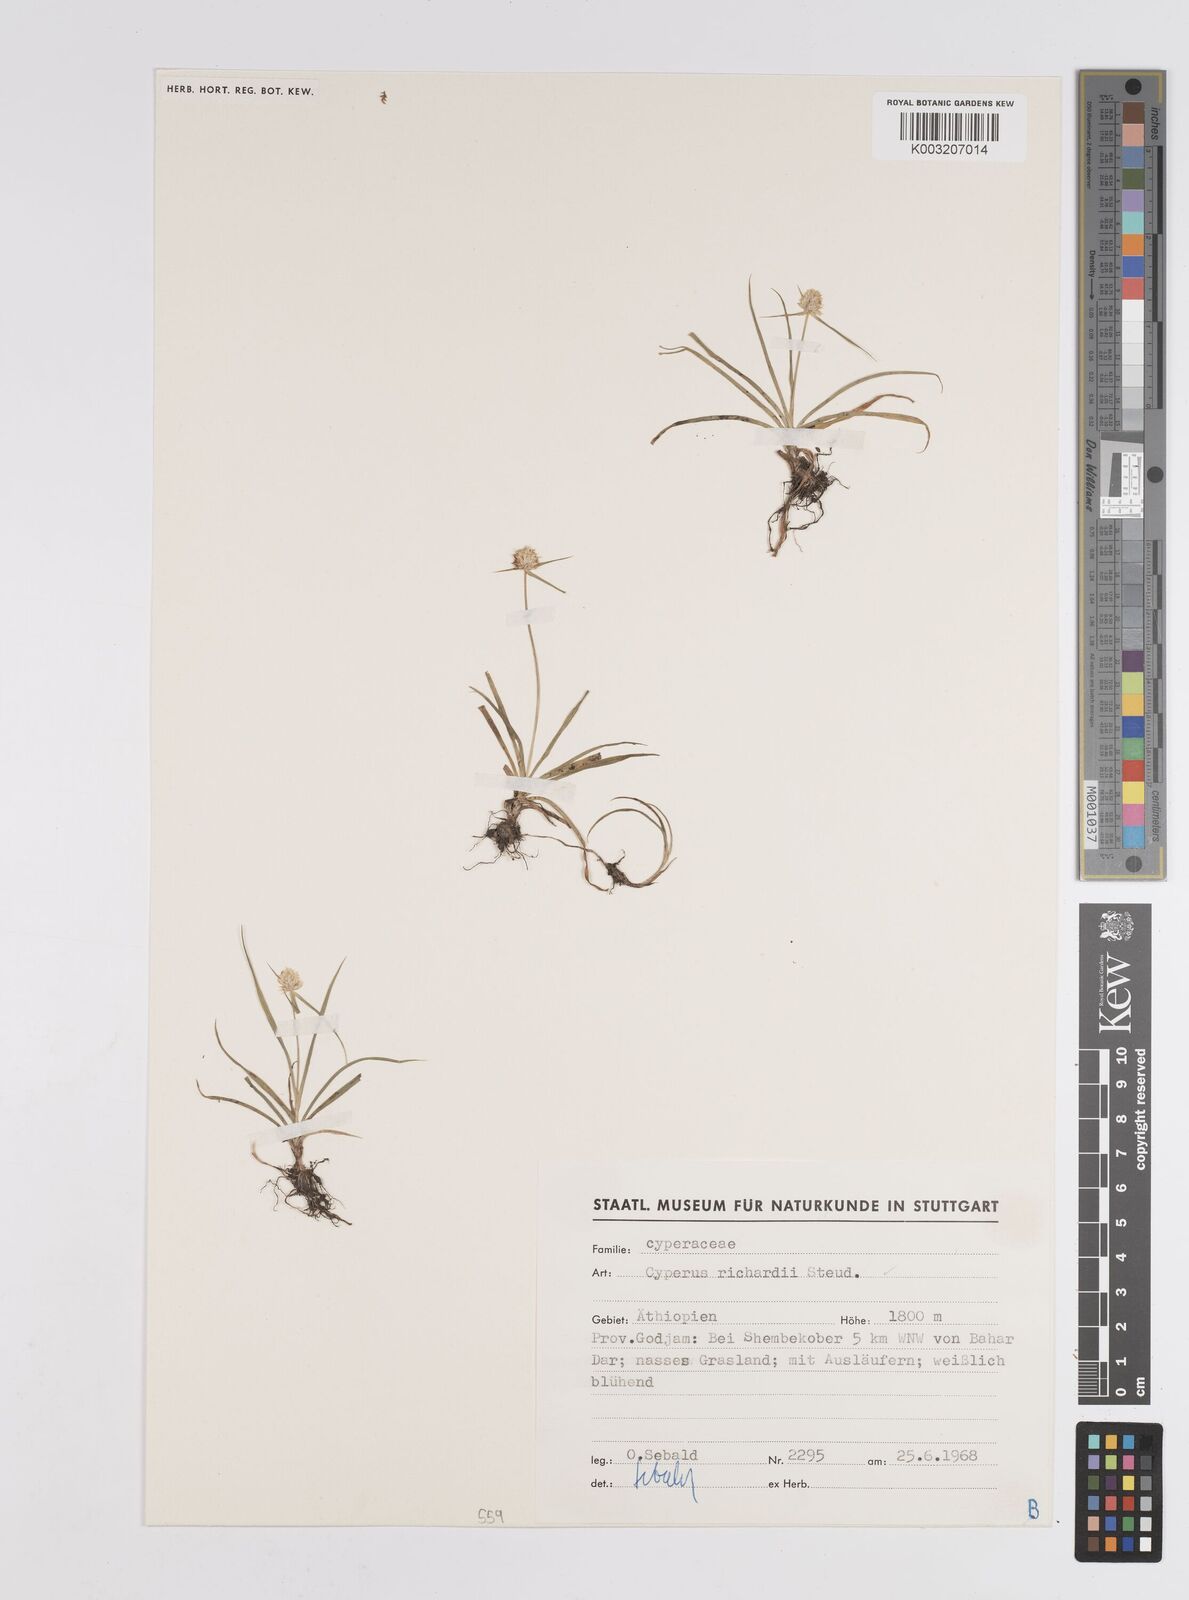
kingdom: Plantae
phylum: Tracheophyta
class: Liliopsida
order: Poales
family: Cyperaceae
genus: Cyperus
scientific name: Cyperus
